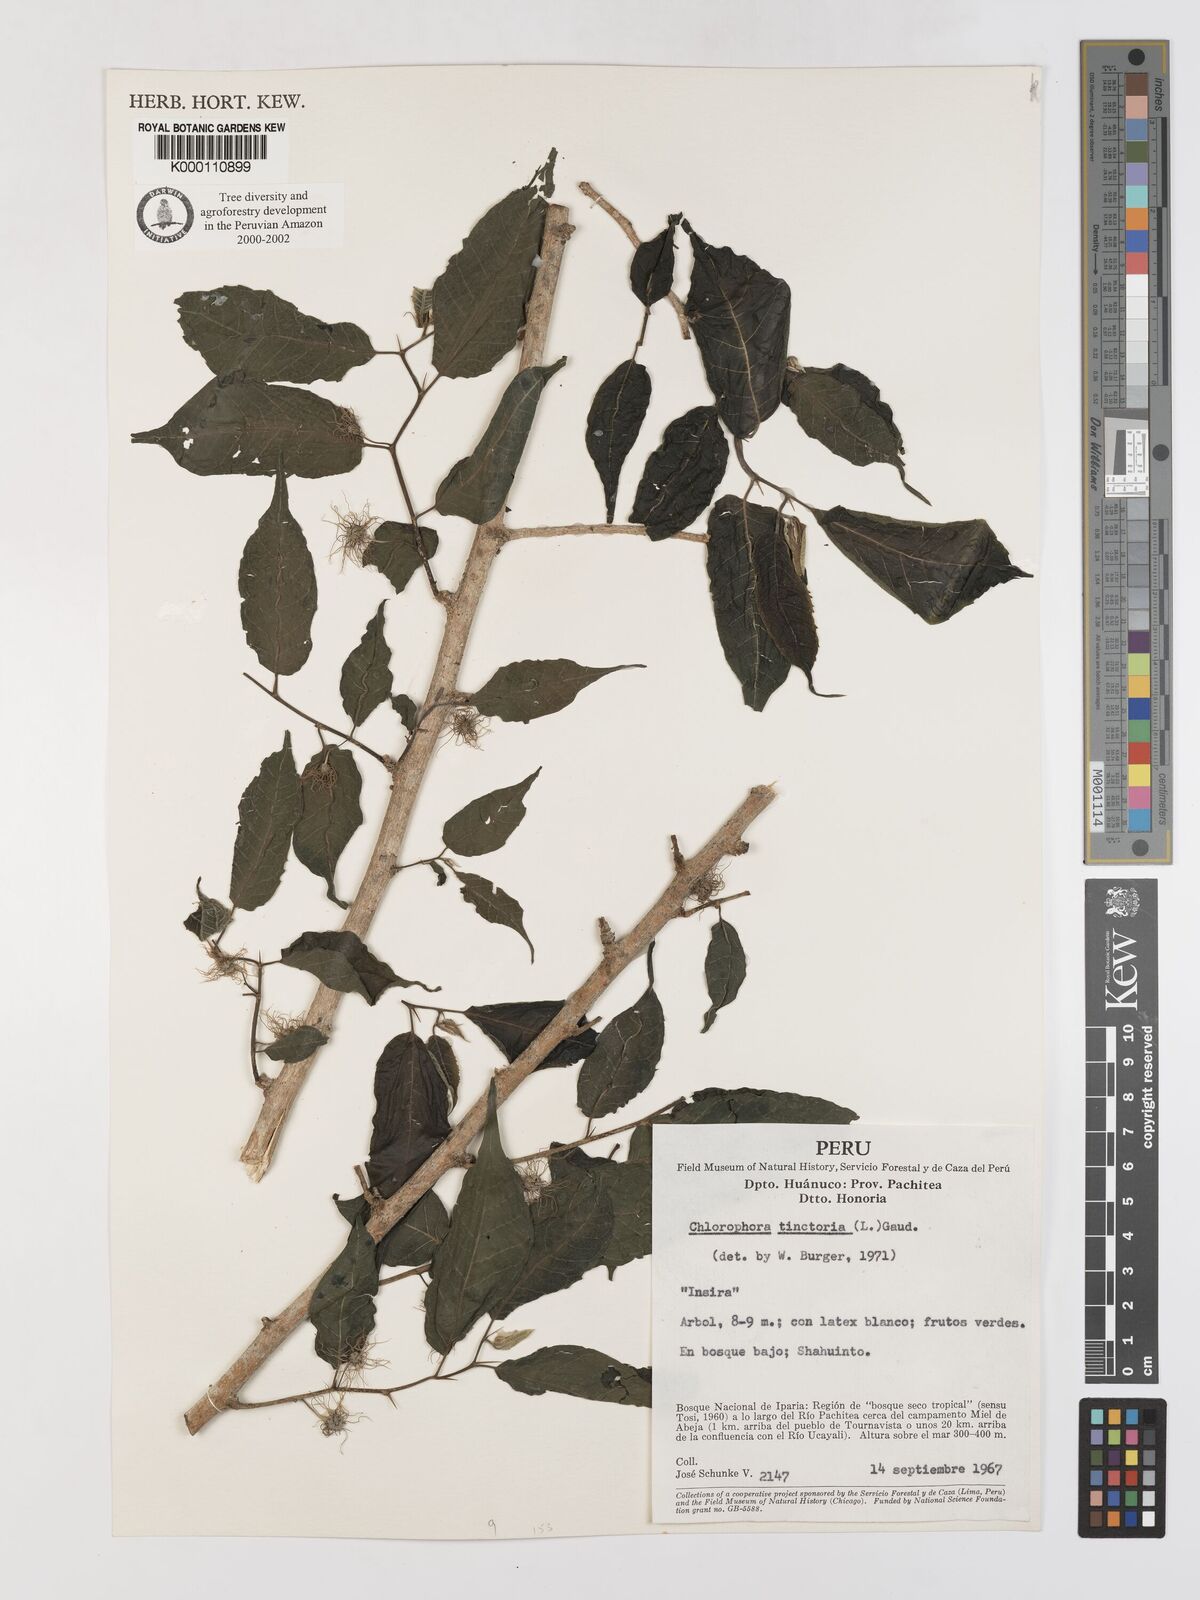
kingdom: Plantae
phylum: Tracheophyta
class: Magnoliopsida
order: Rosales
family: Moraceae
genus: Maclura
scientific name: Maclura tinctoria
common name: Old fustic
